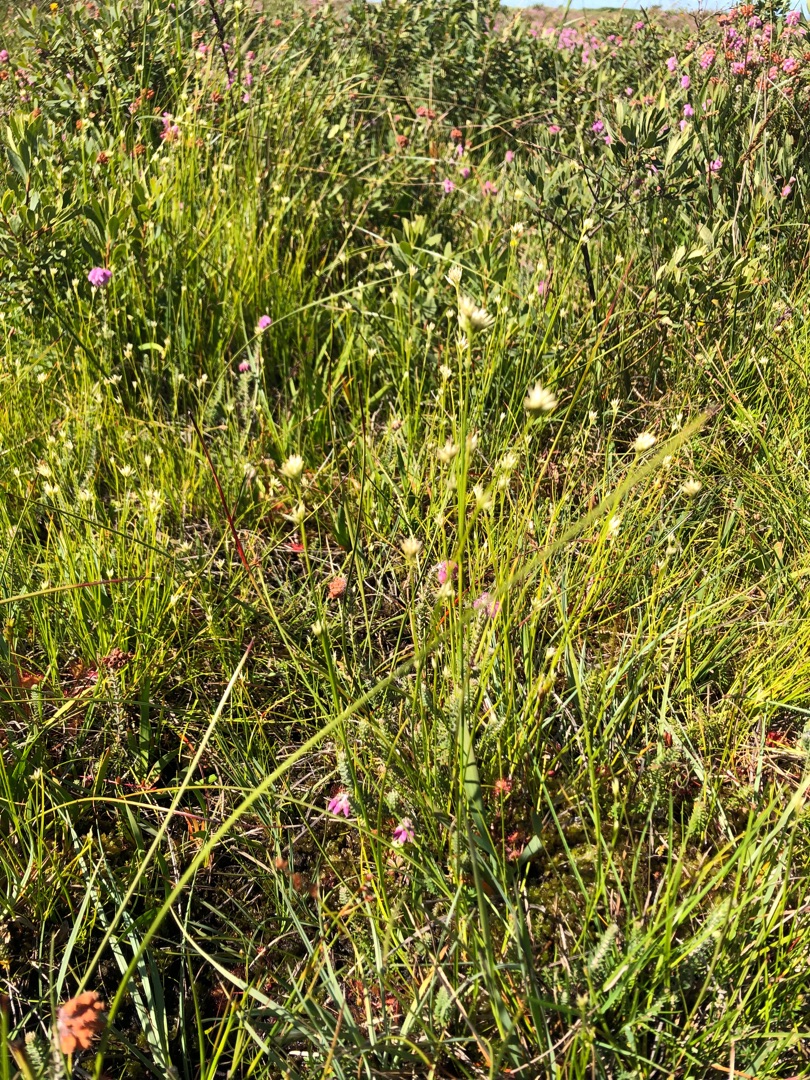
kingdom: Plantae
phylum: Tracheophyta
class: Liliopsida
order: Poales
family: Cyperaceae
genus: Rhynchospora
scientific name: Rhynchospora alba
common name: Hvid næbfrø
